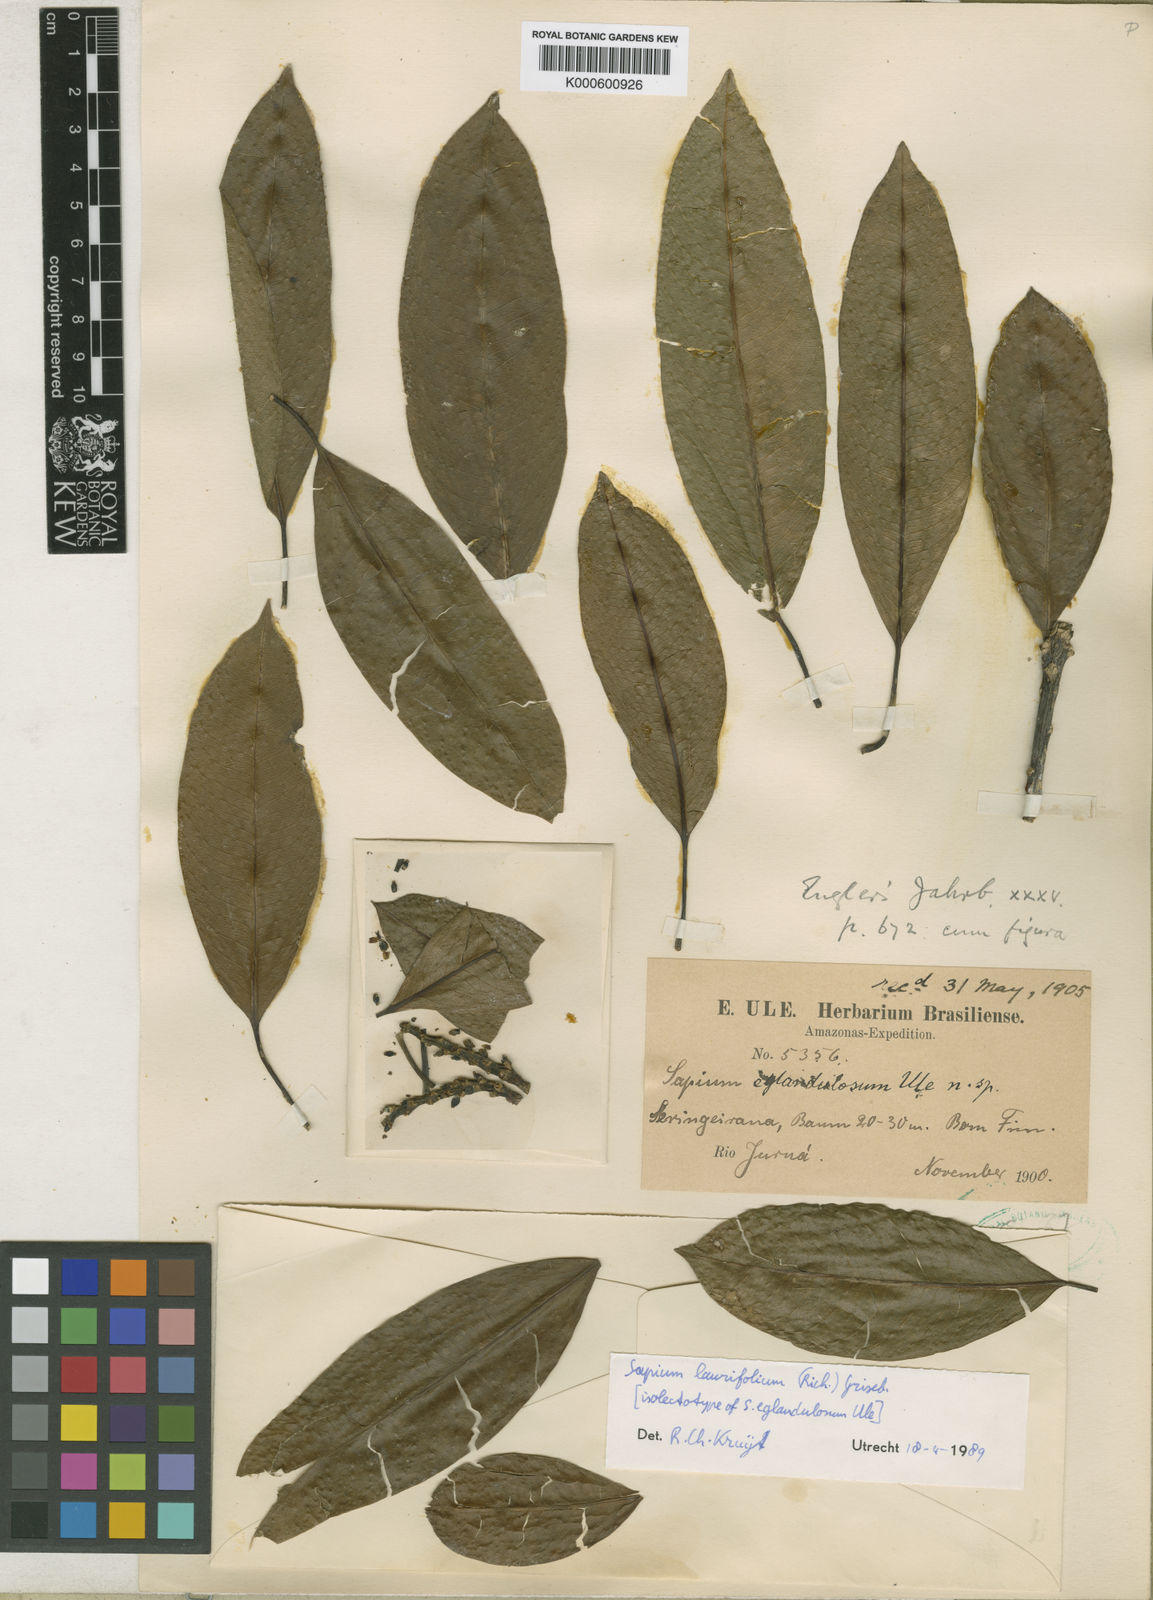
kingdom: Plantae
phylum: Tracheophyta
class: Magnoliopsida
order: Malpighiales
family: Euphorbiaceae
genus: Sapium
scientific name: Sapium laurifolium
